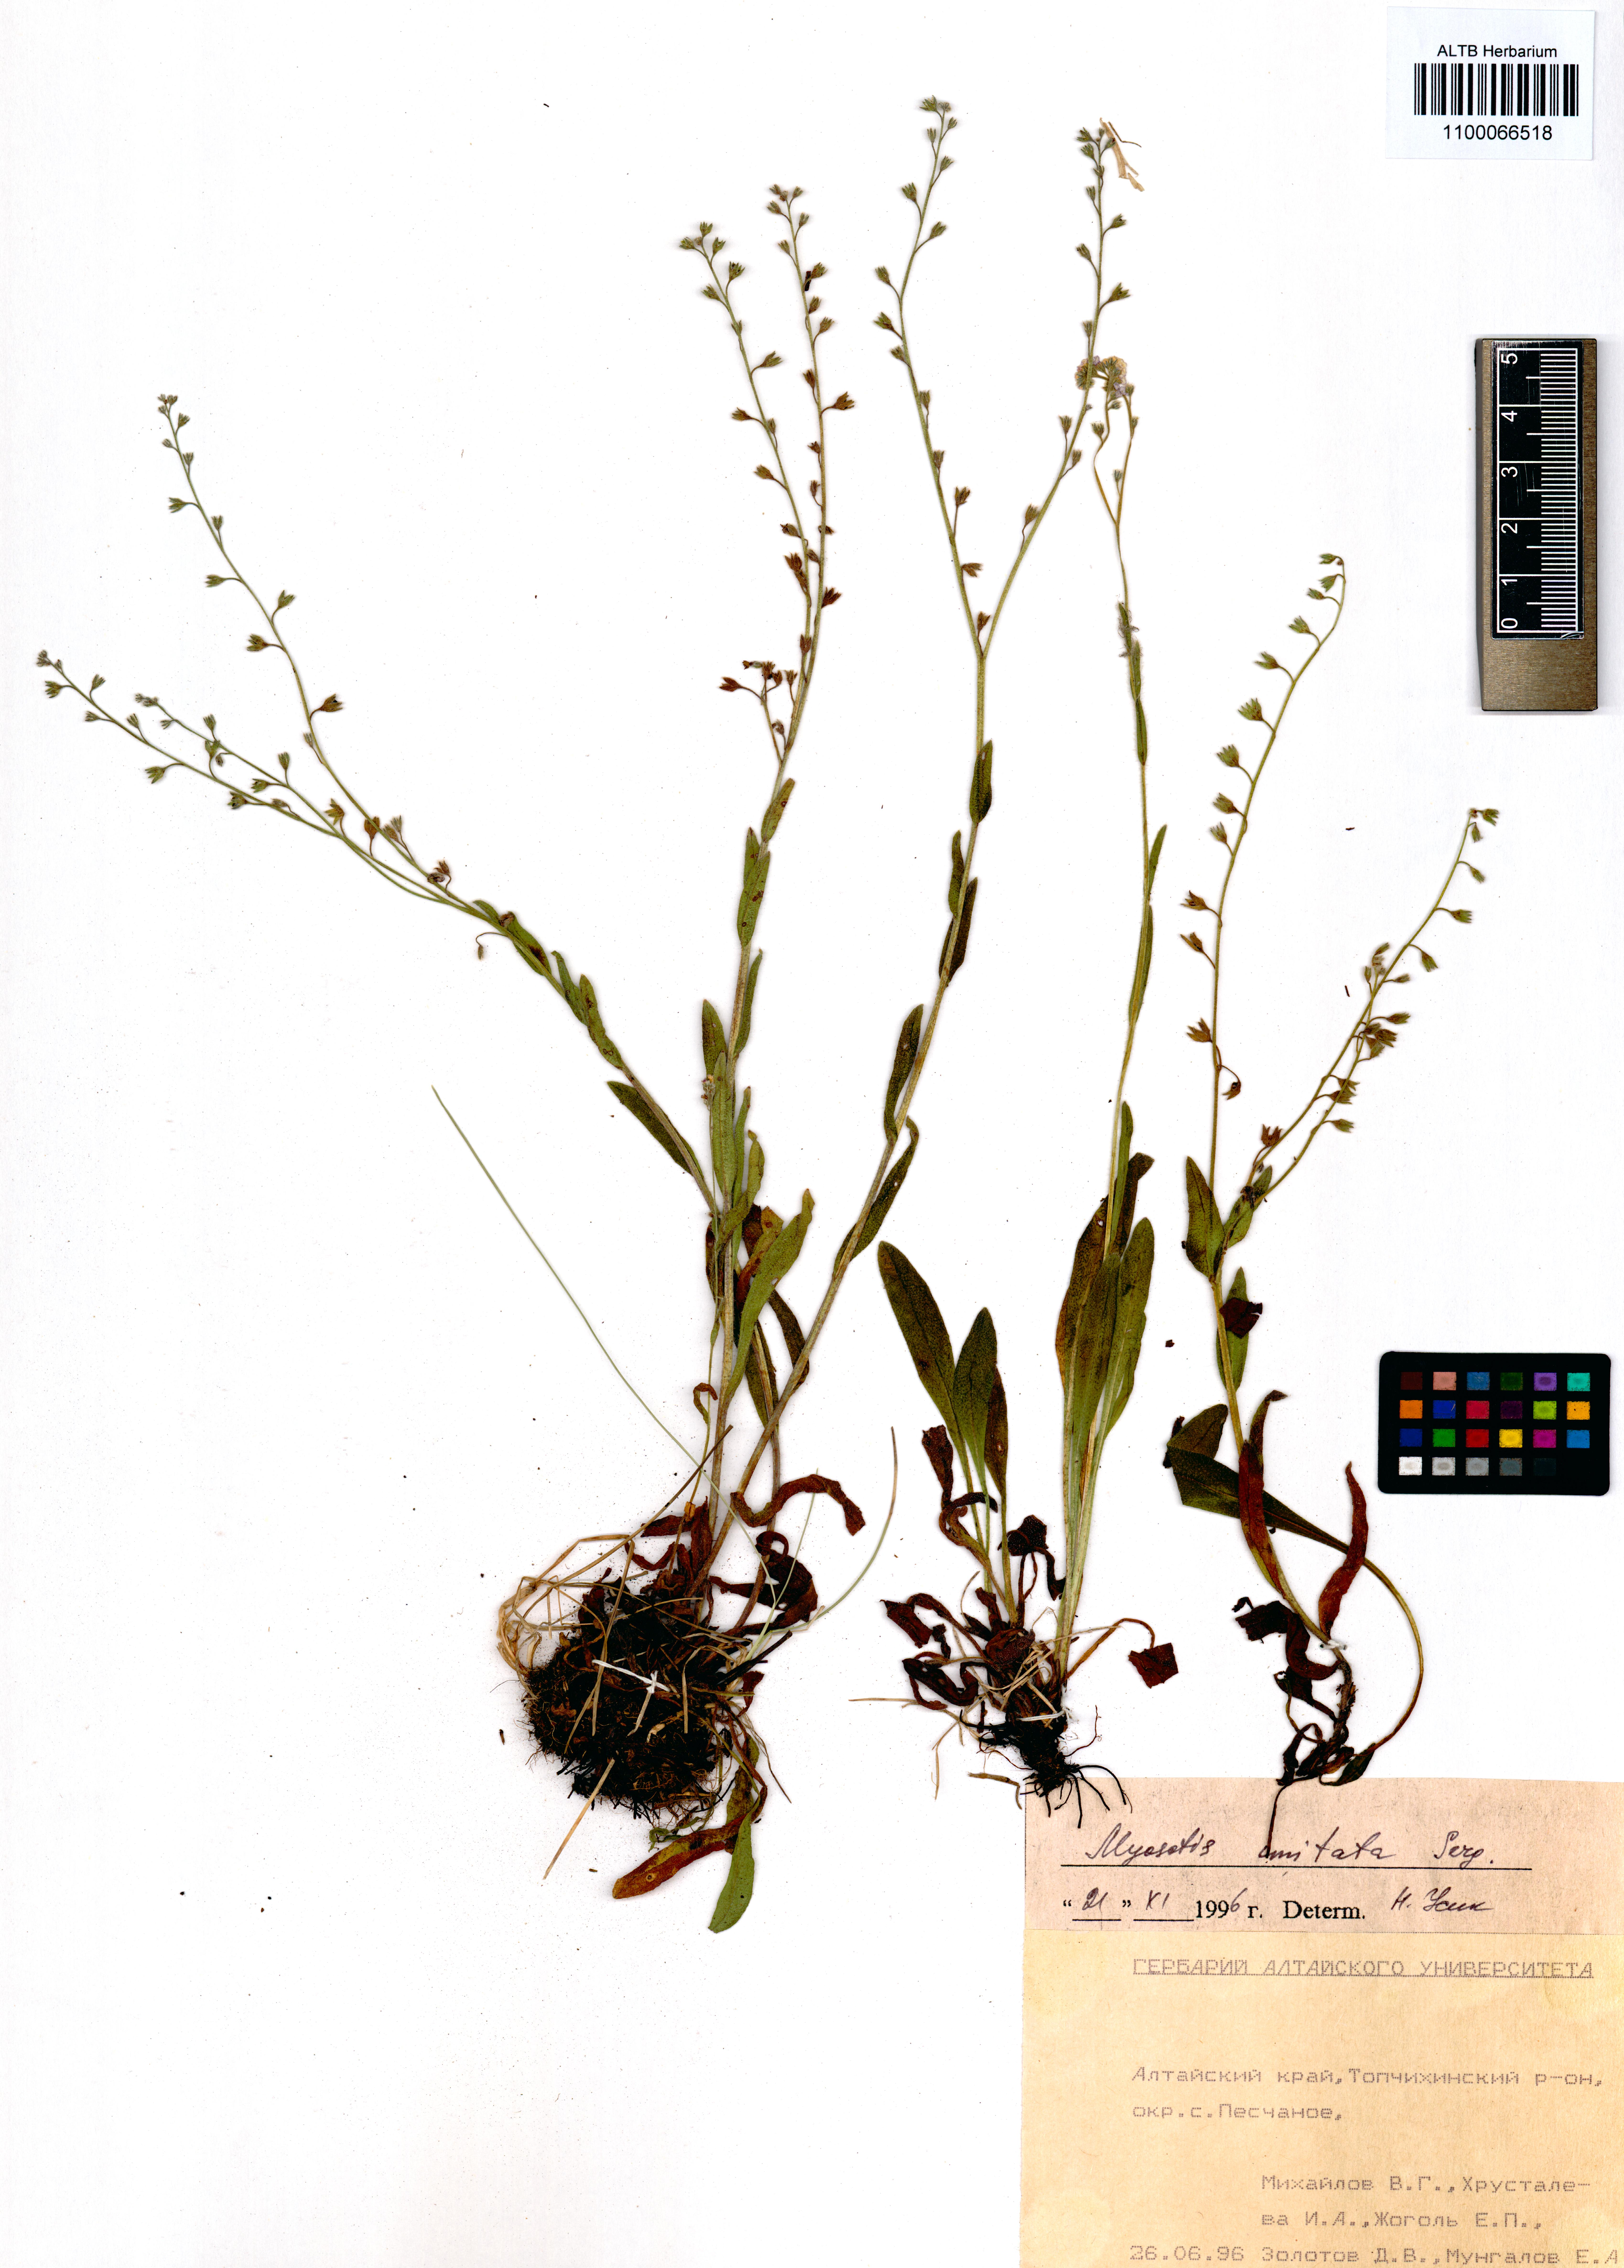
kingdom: Plantae
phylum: Tracheophyta
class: Magnoliopsida
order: Boraginales
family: Boraginaceae
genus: Myosotis
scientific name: Myosotis imitata
